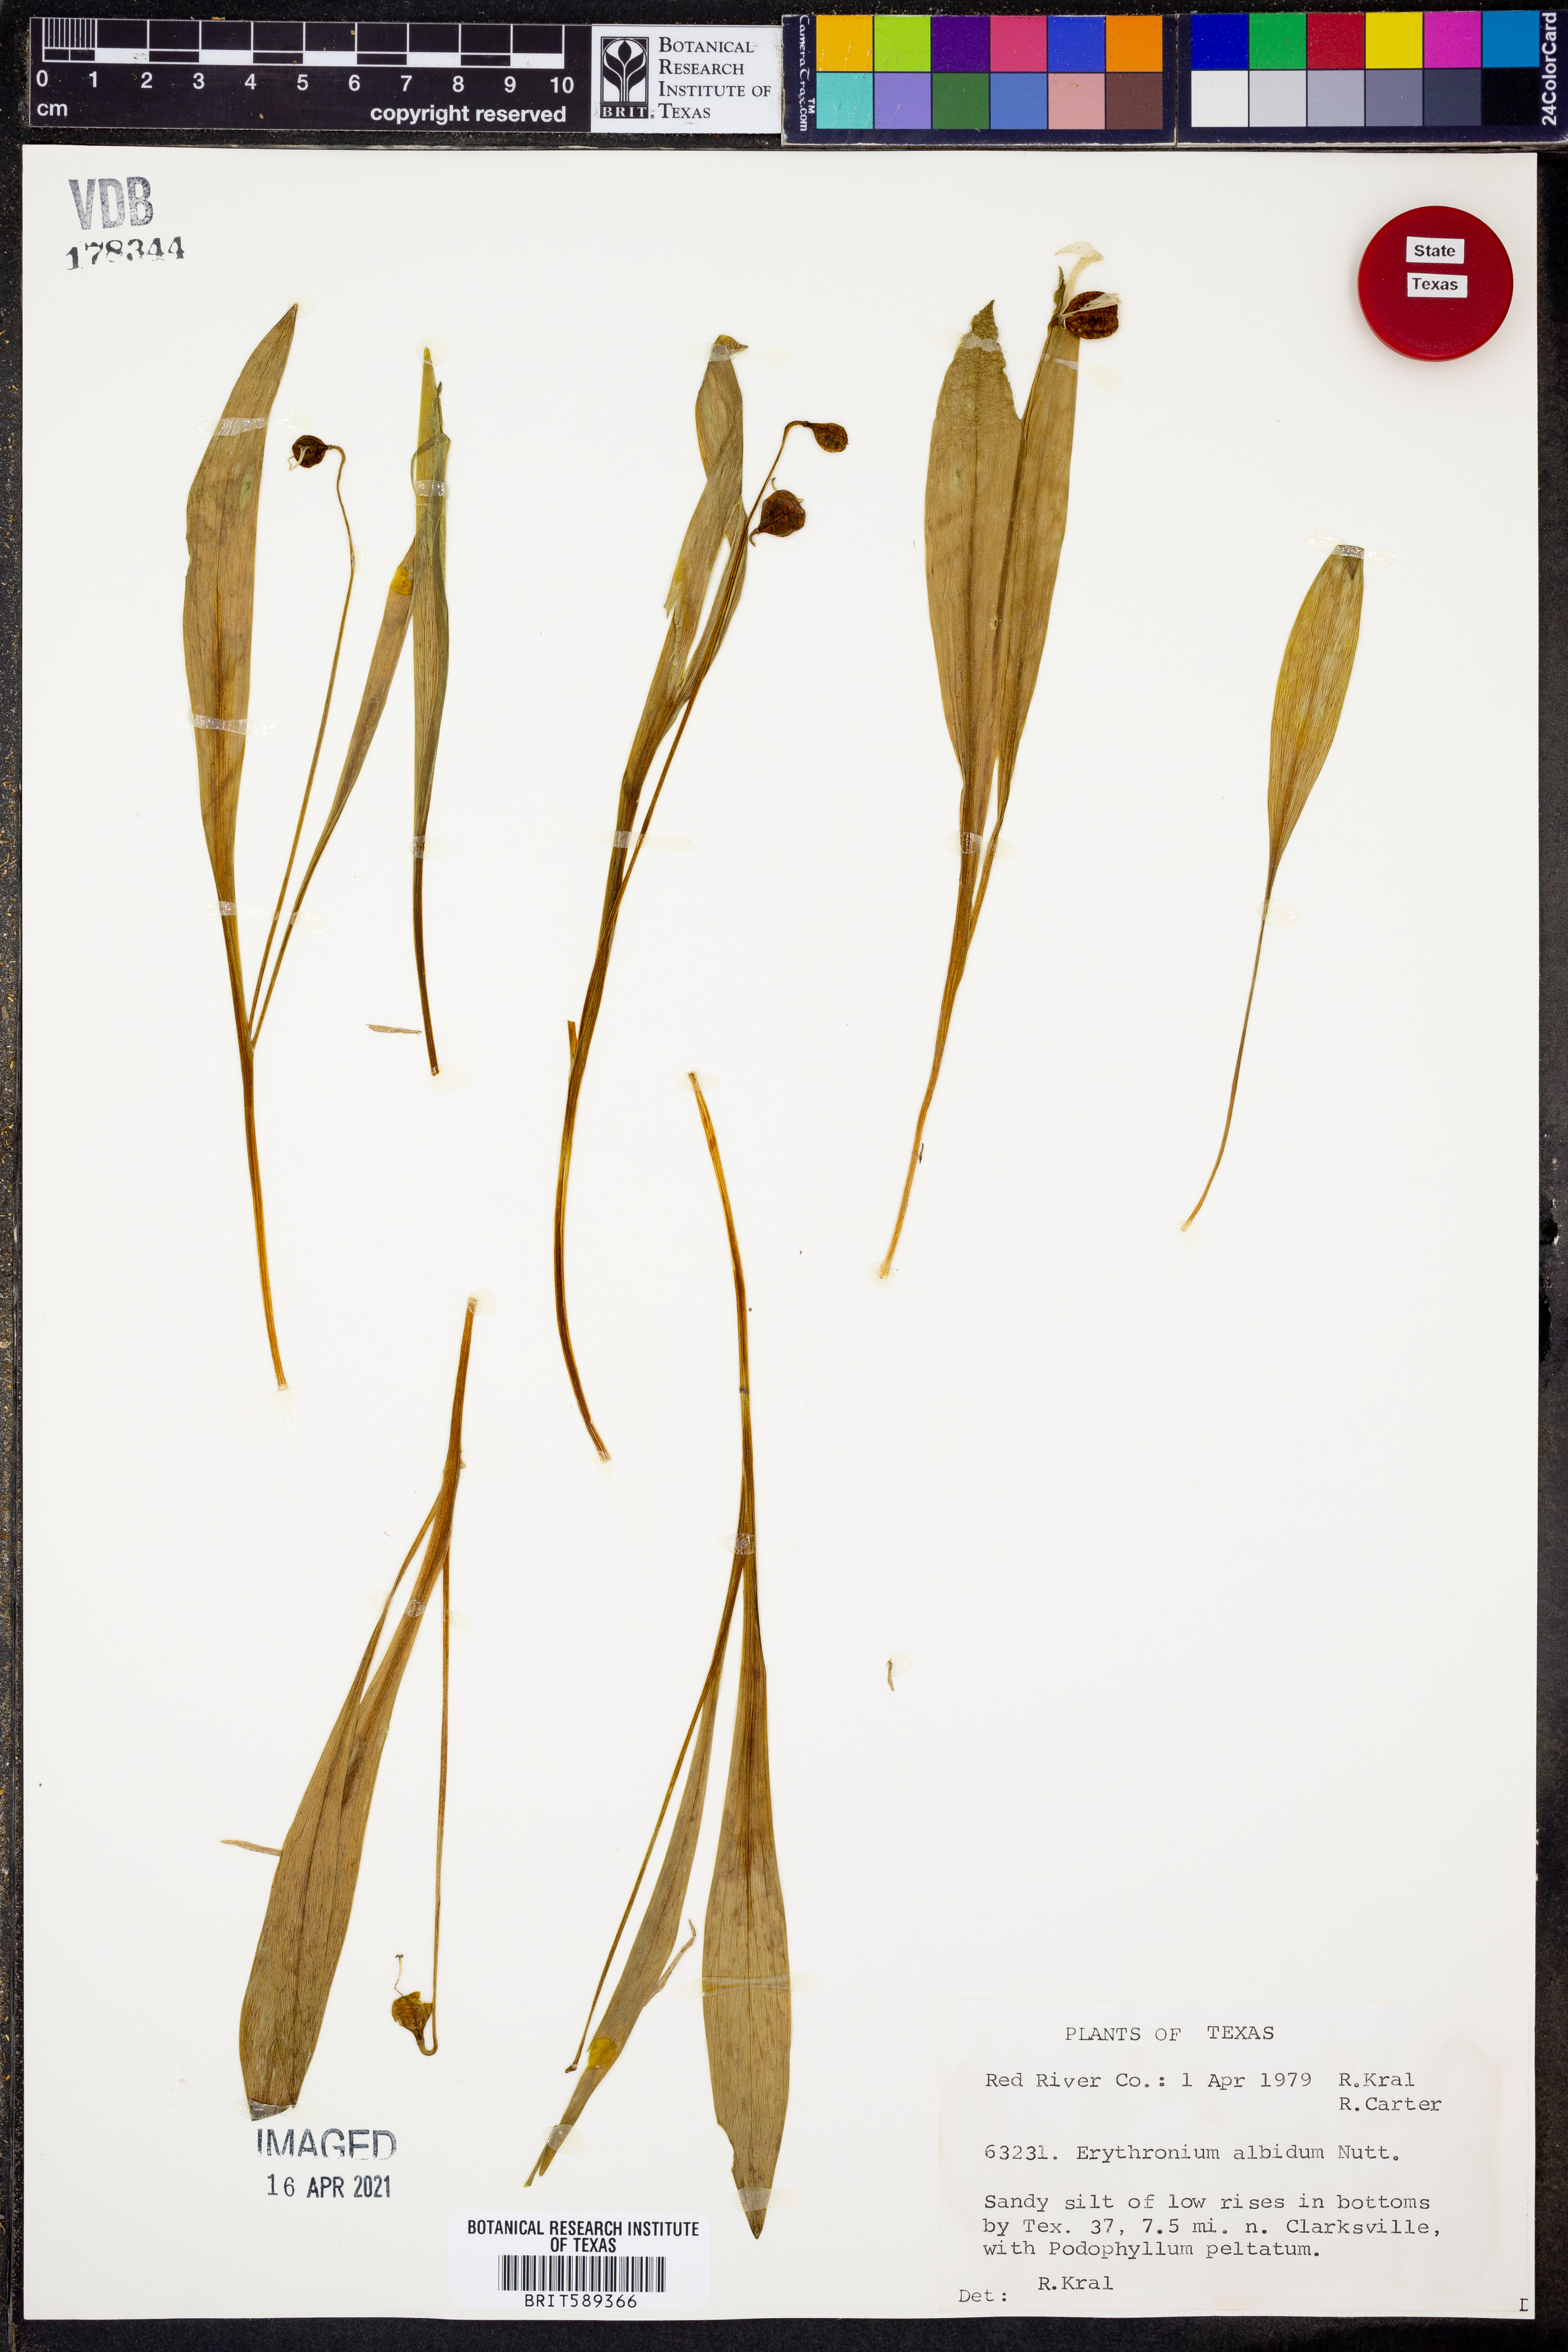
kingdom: Plantae
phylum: Tracheophyta
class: Liliopsida
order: Liliales
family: Liliaceae
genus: Erythronium
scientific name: Erythronium albidum
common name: White trout-lily
